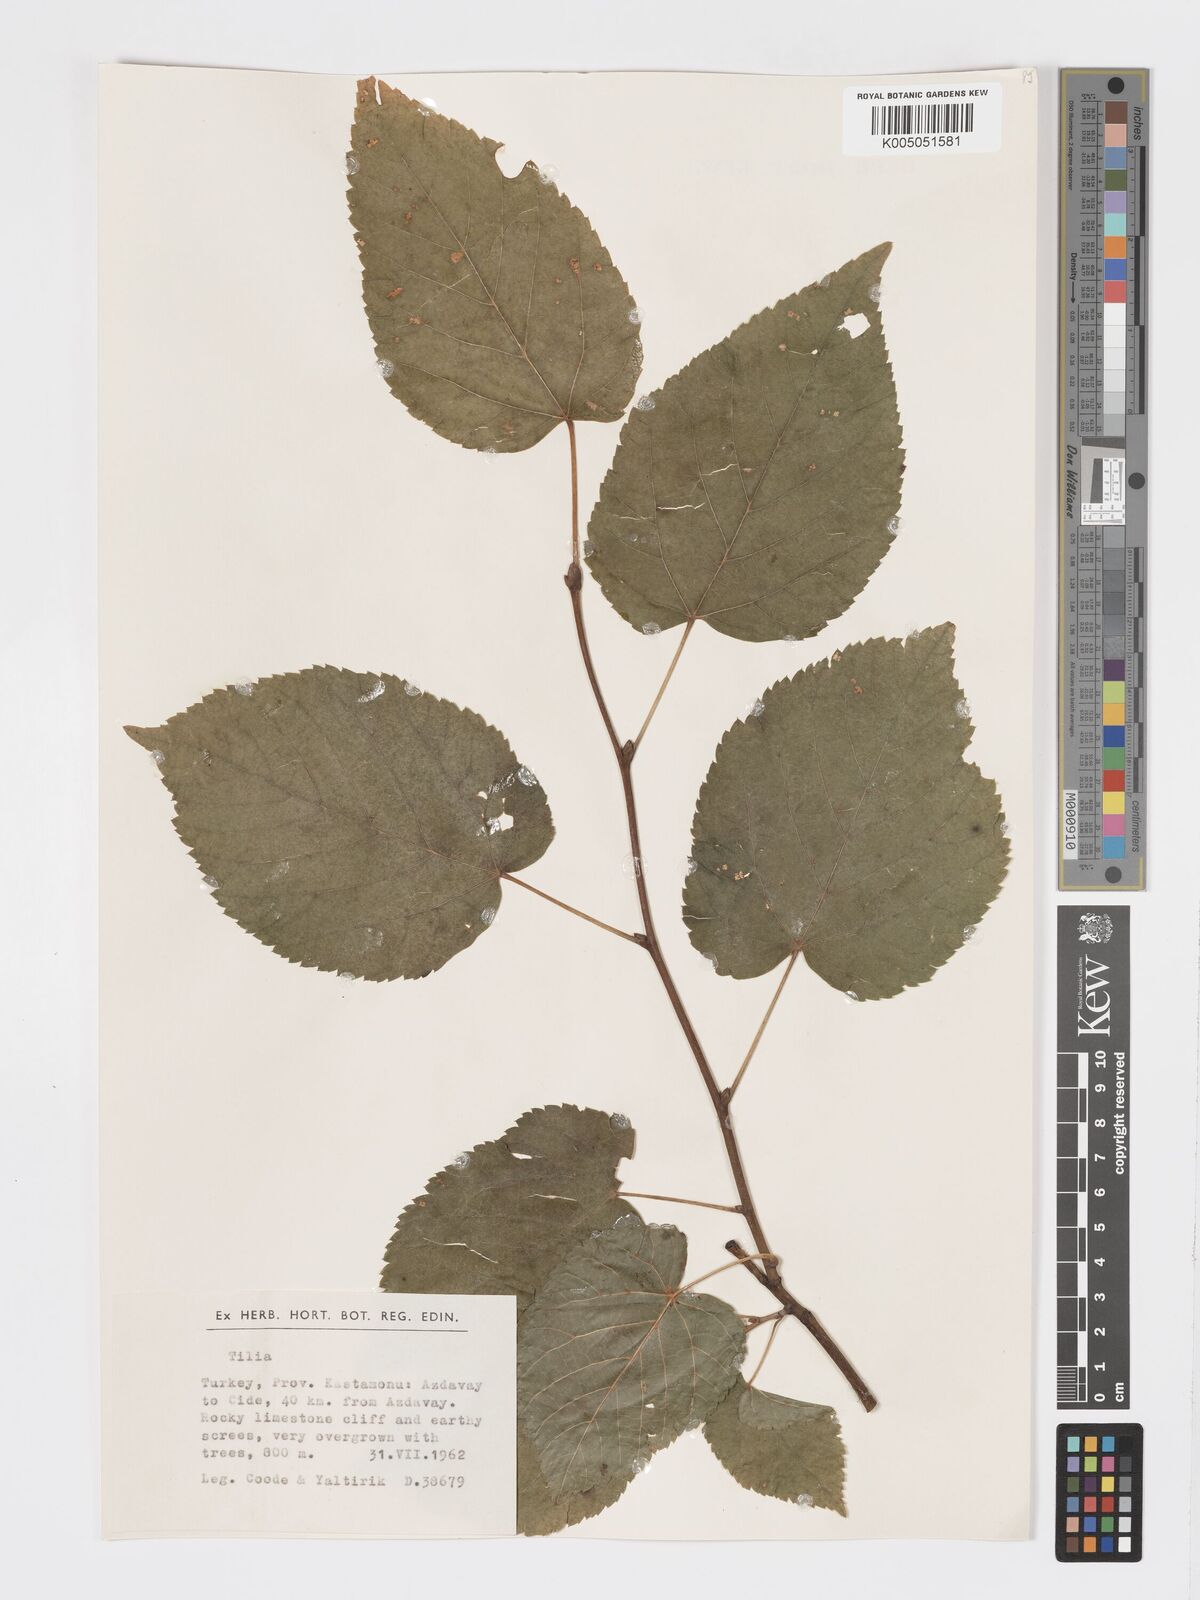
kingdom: Plantae
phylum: Tracheophyta
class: Magnoliopsida
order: Malvales
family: Malvaceae
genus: Tilia
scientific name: Tilia
